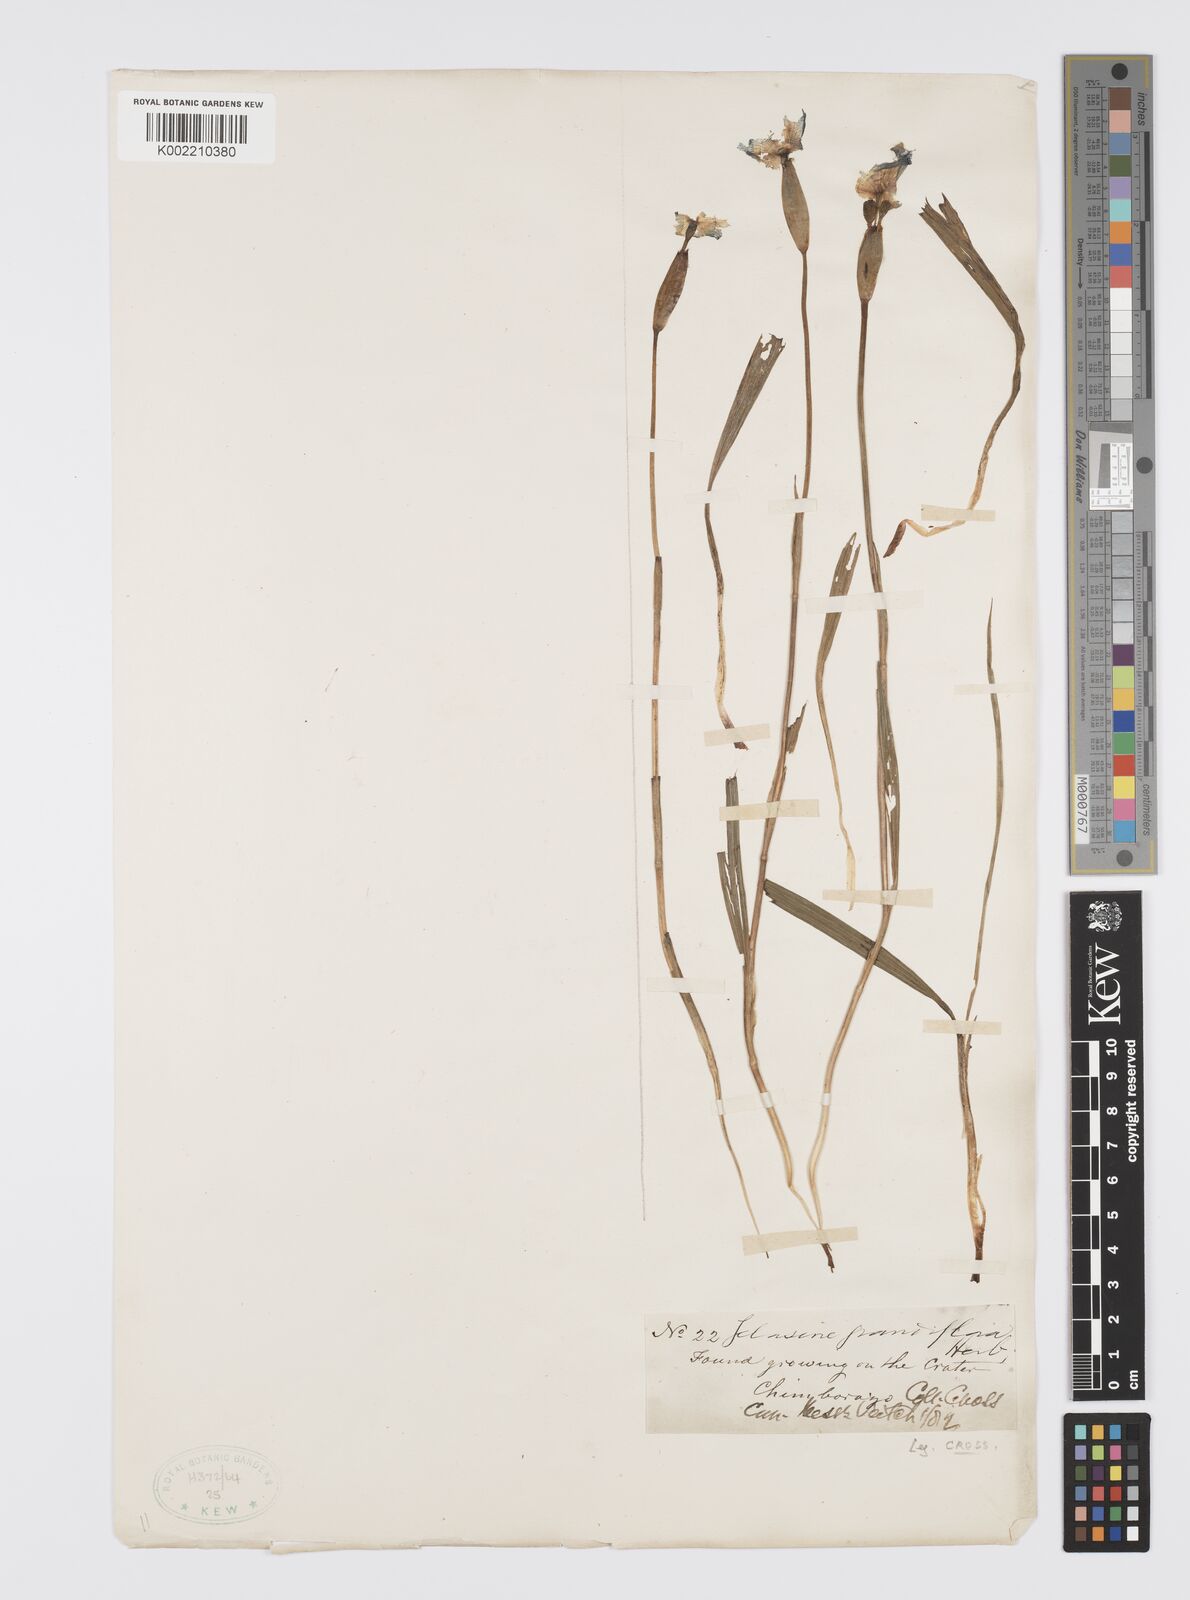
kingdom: Plantae
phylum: Tracheophyta
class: Liliopsida
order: Asparagales
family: Iridaceae
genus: Tigridia
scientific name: Tigridia pearcei
